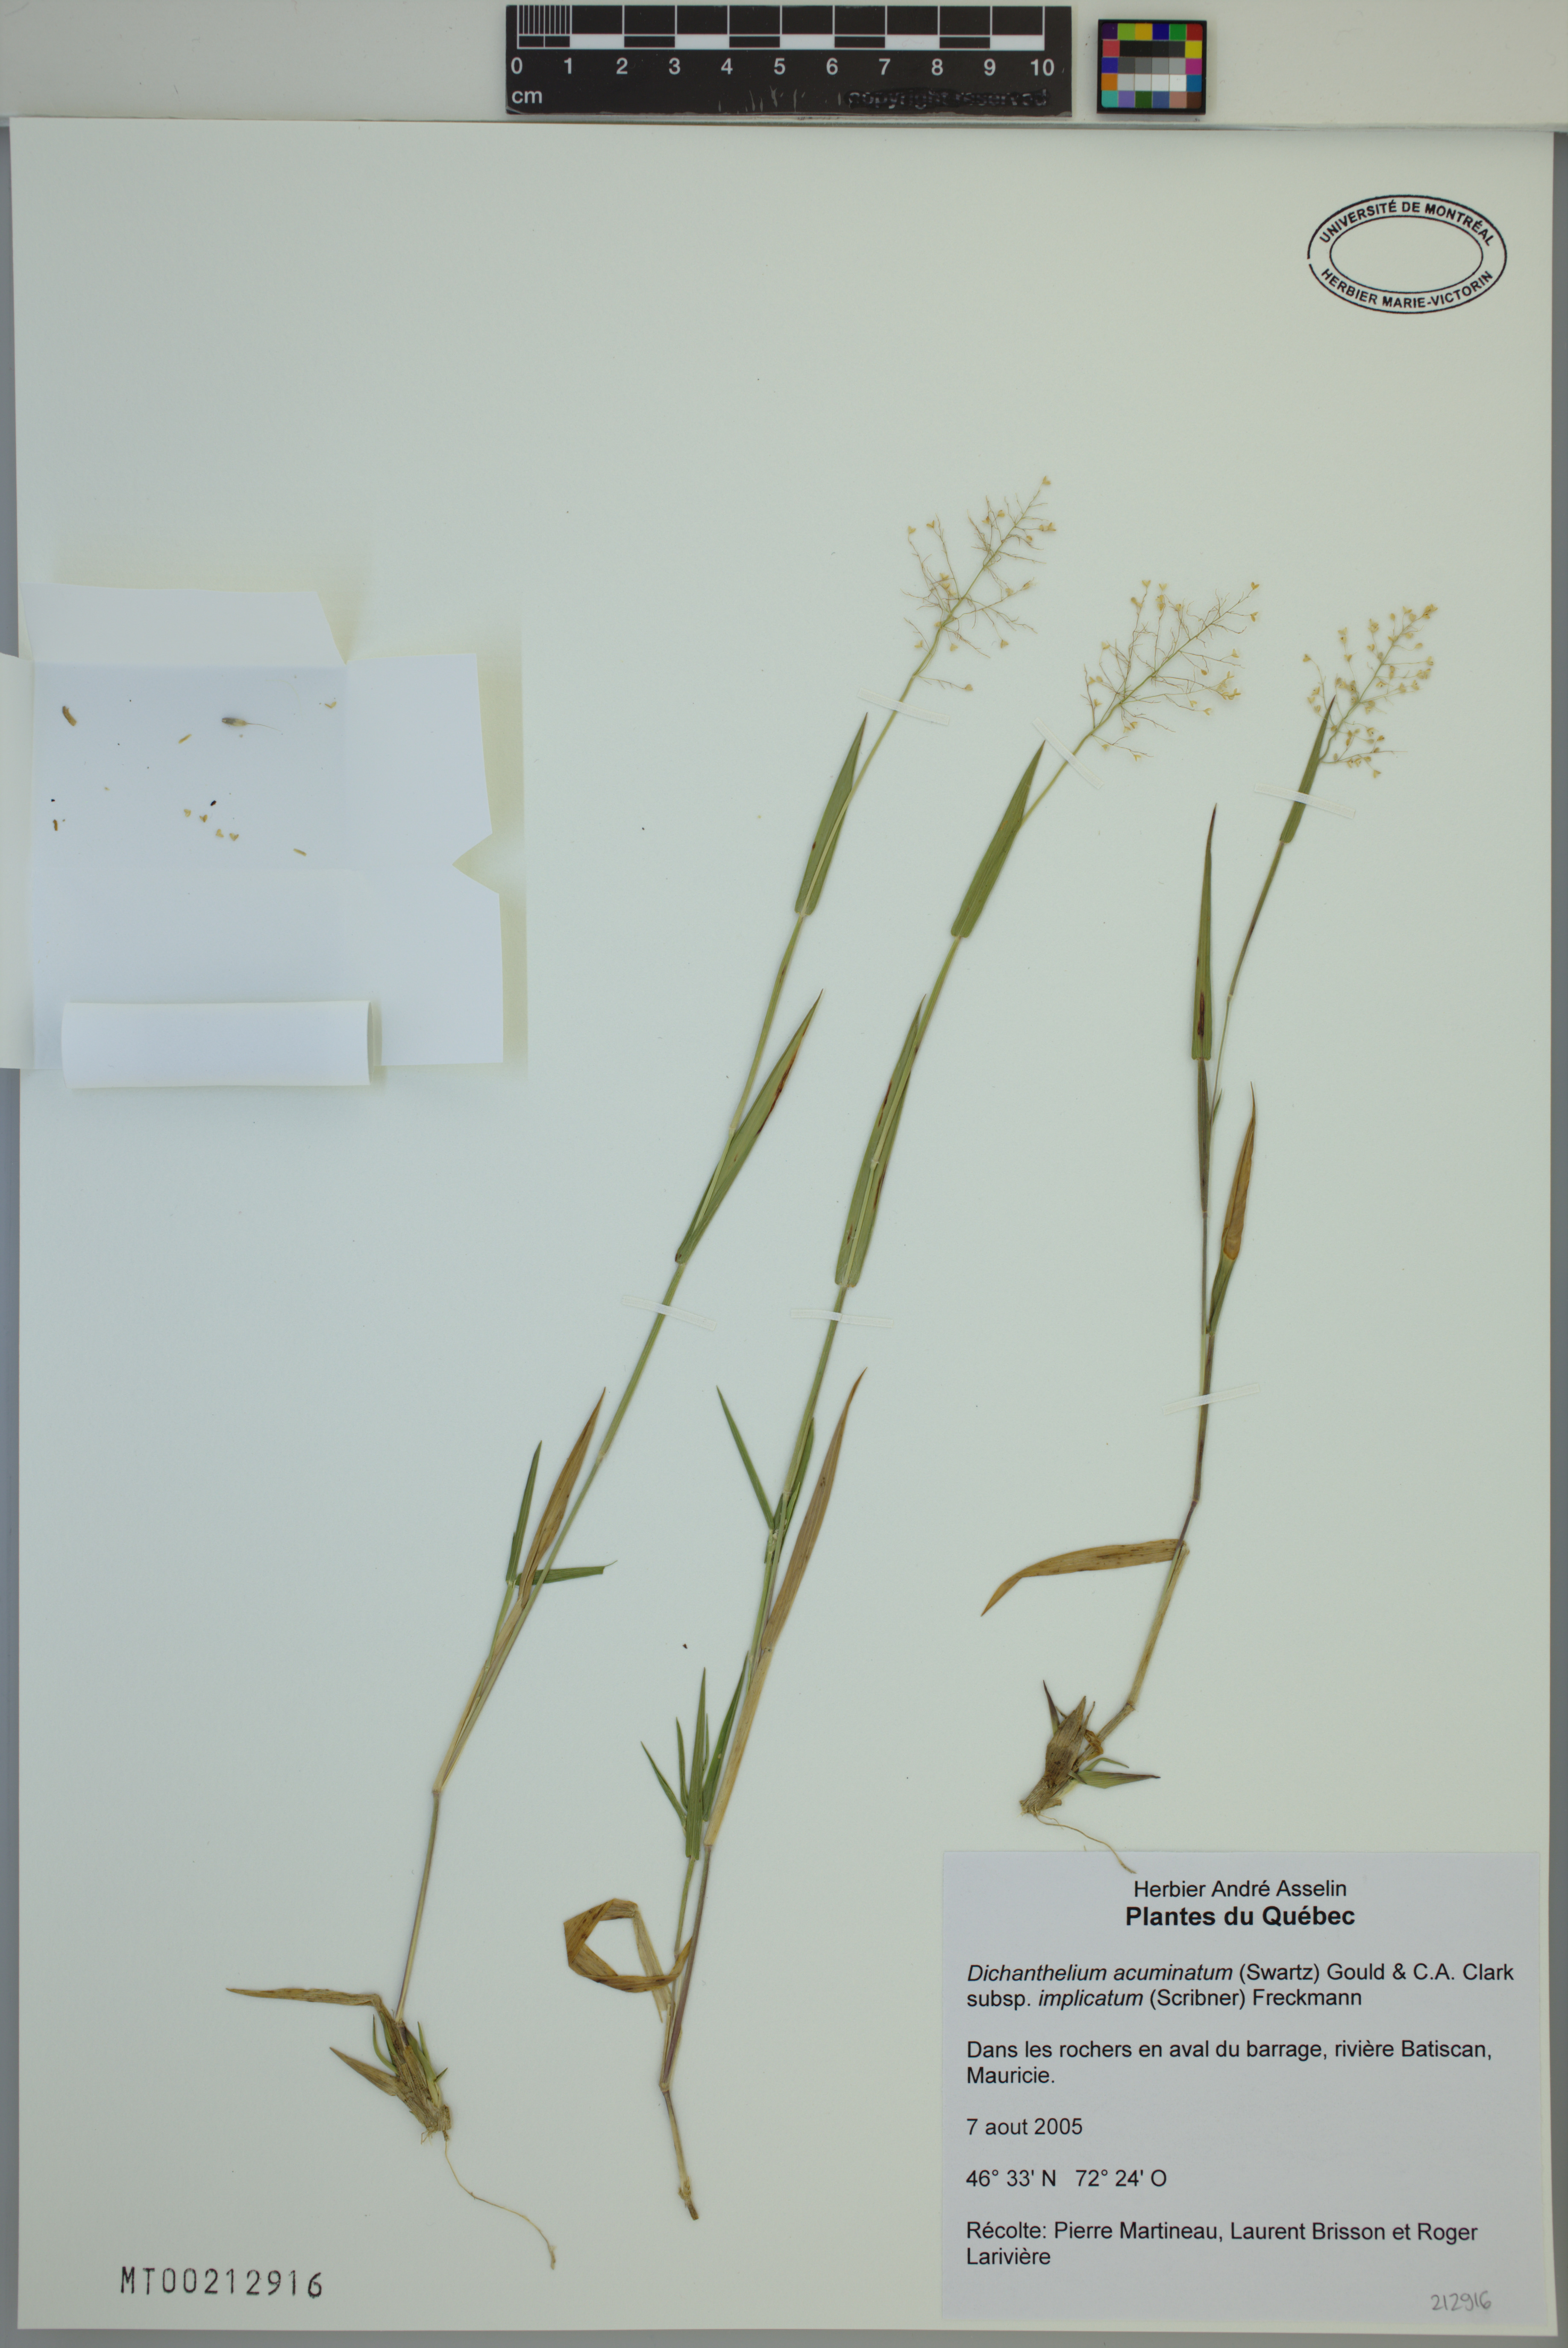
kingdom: Plantae
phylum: Tracheophyta
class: Liliopsida
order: Poales
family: Poaceae
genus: Dichanthelium
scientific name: Dichanthelium implicatum
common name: Slender-stemmed panicgrass
